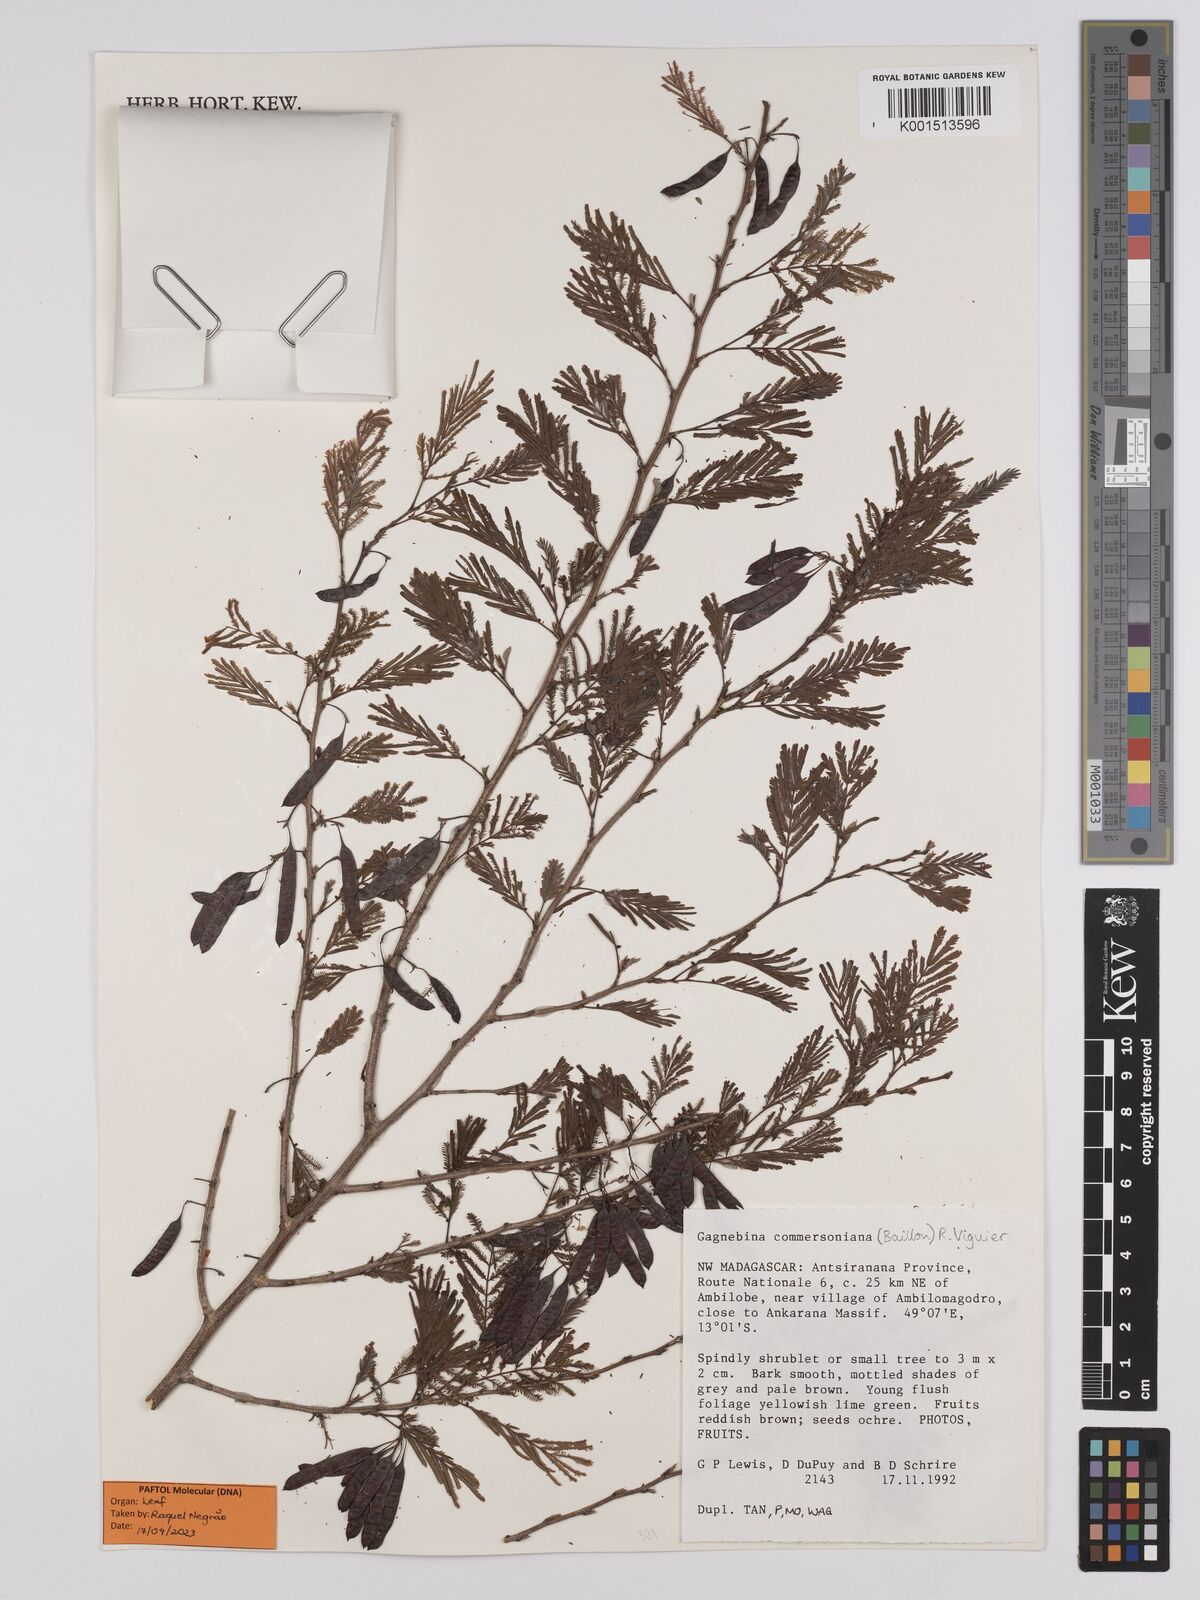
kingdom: Plantae
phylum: Tracheophyta
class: Magnoliopsida
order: Fabales
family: Fabaceae
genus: Gagnebina
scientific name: Gagnebina commersoniana
